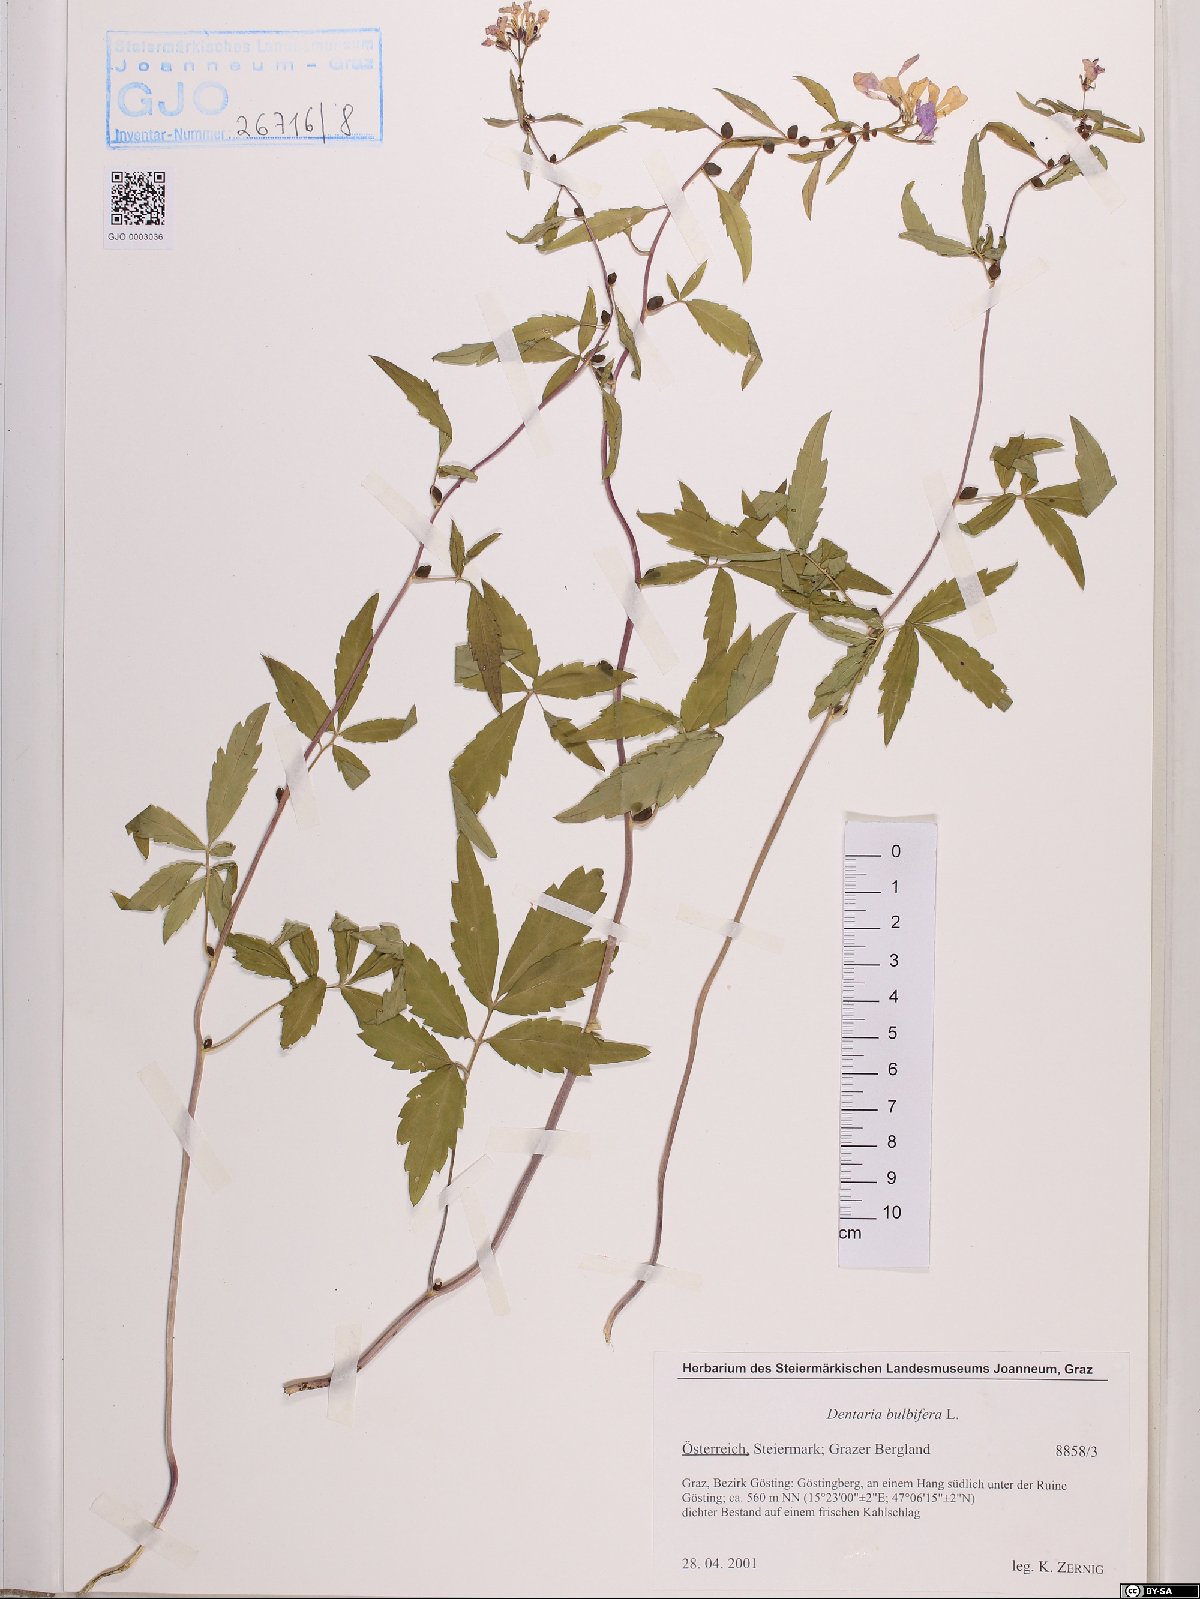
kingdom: Plantae
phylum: Tracheophyta
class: Magnoliopsida
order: Brassicales
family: Brassicaceae
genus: Cardamine
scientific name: Cardamine bulbifera
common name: Coralroot bittercress
